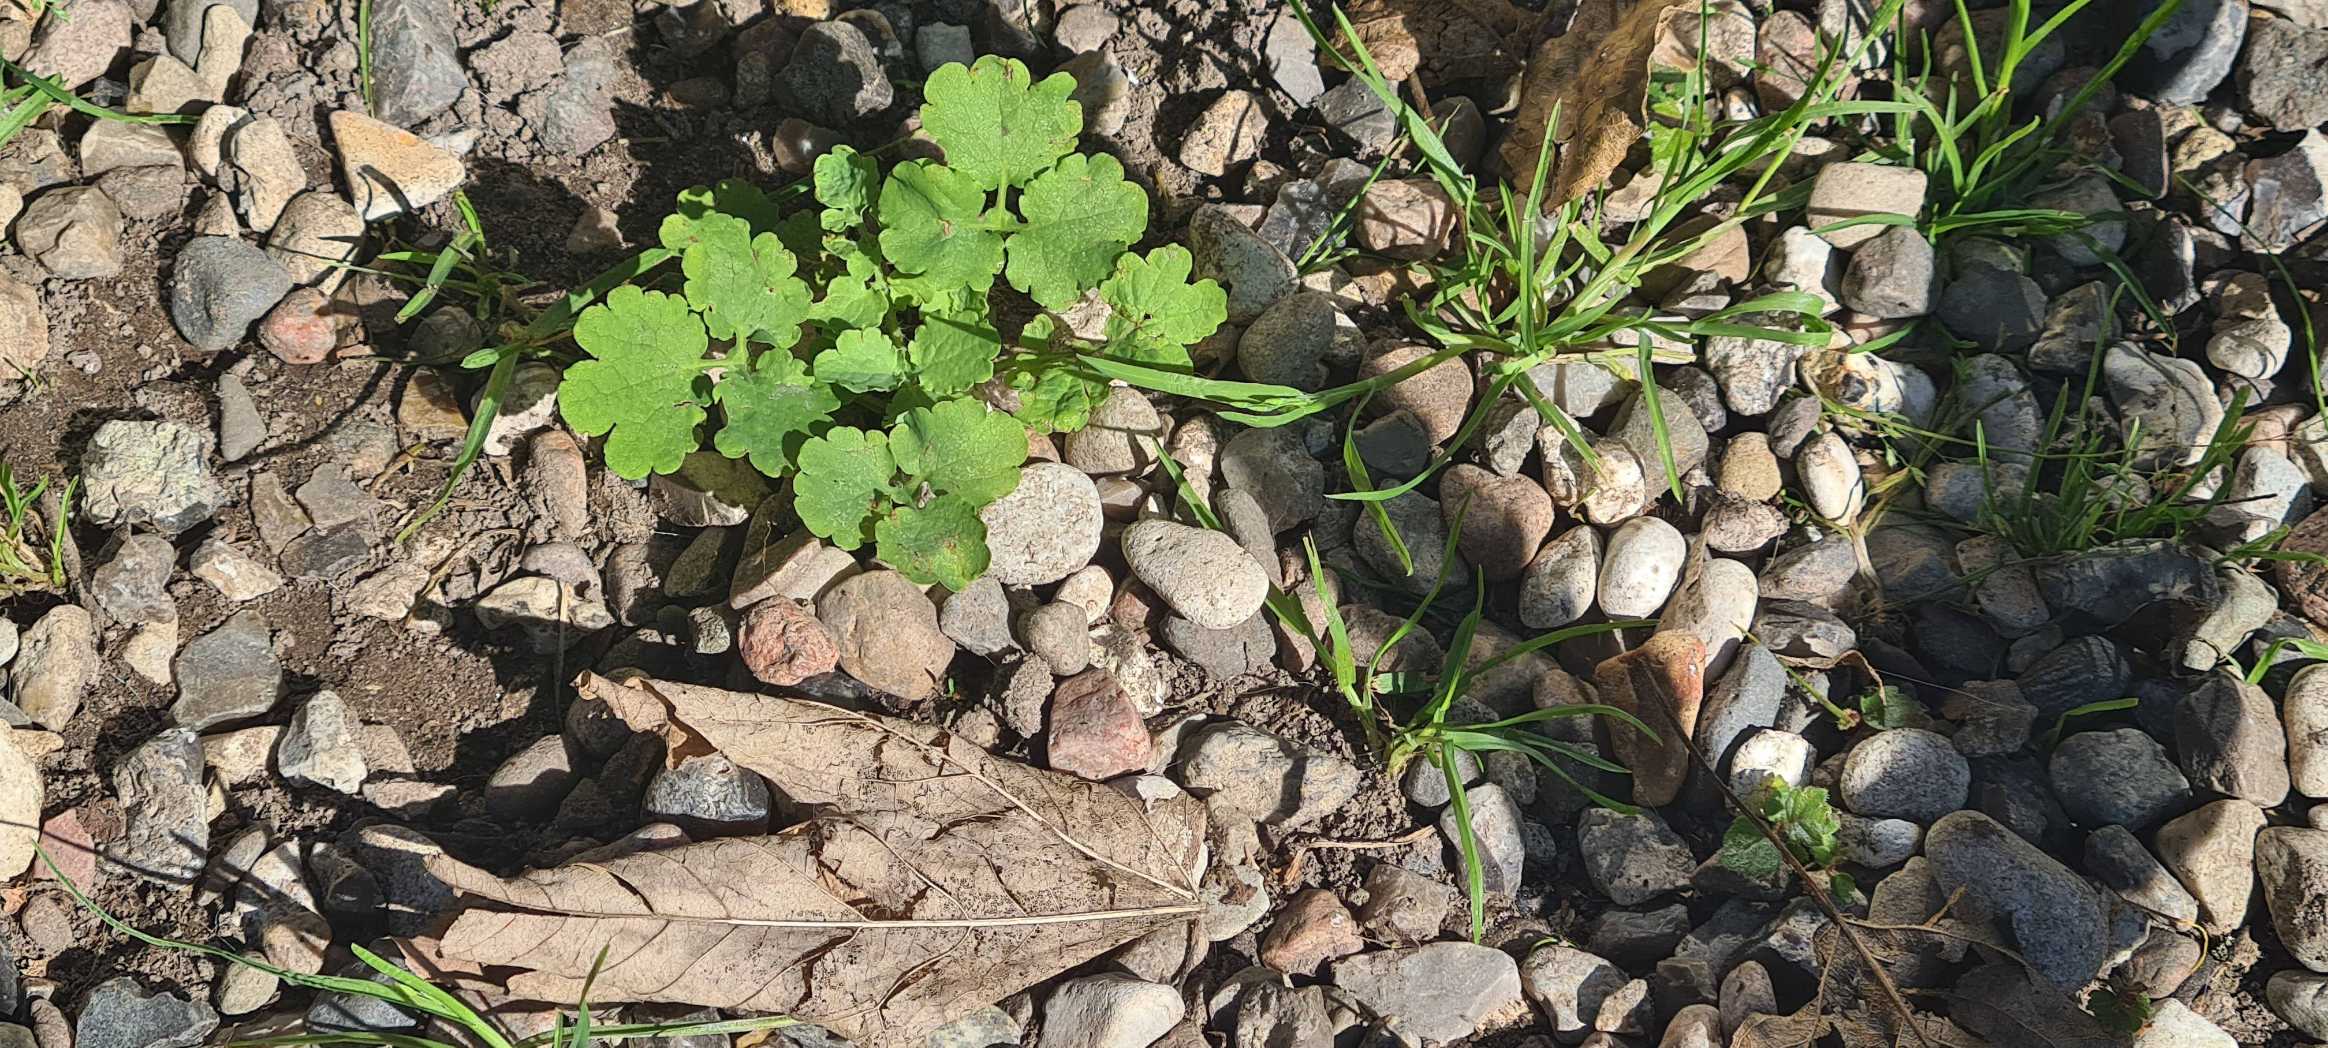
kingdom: Plantae
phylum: Tracheophyta
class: Magnoliopsida
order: Ranunculales
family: Papaveraceae
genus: Chelidonium
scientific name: Chelidonium majus
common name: Svaleurt
